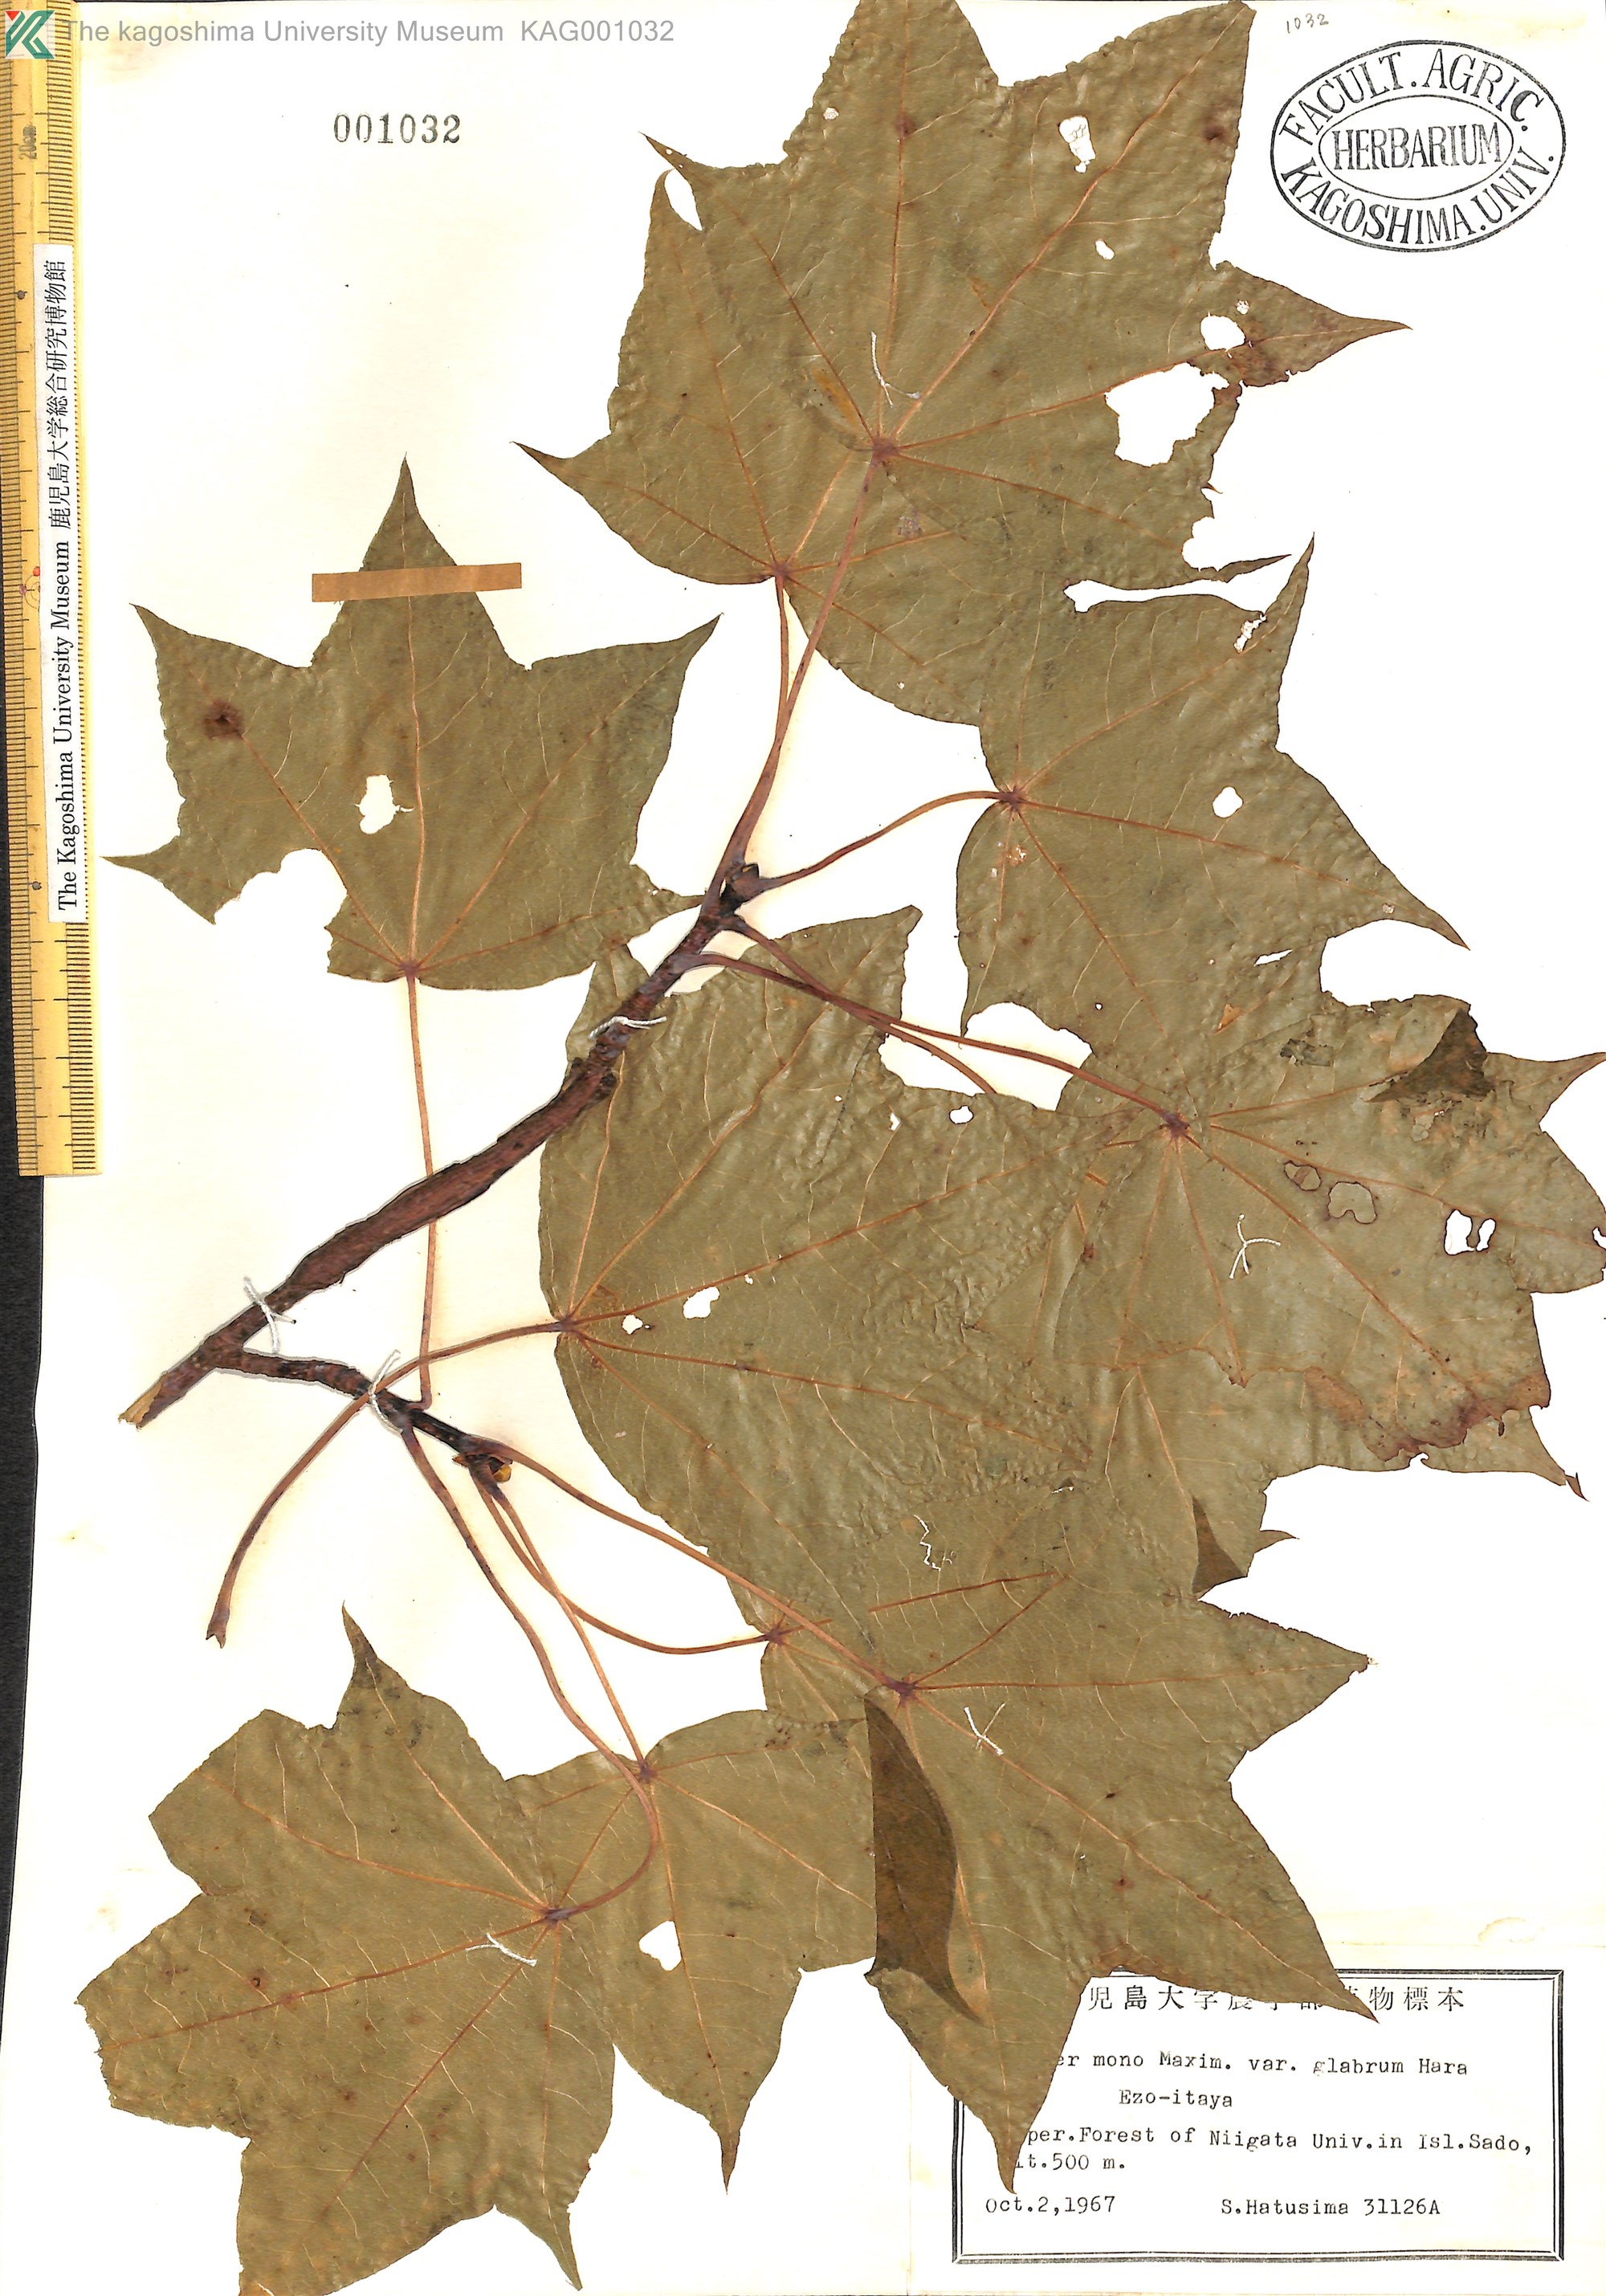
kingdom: Plantae
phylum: Tracheophyta
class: Magnoliopsida
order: Sapindales
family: Sapindaceae
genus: Acer
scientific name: Acer pictum
